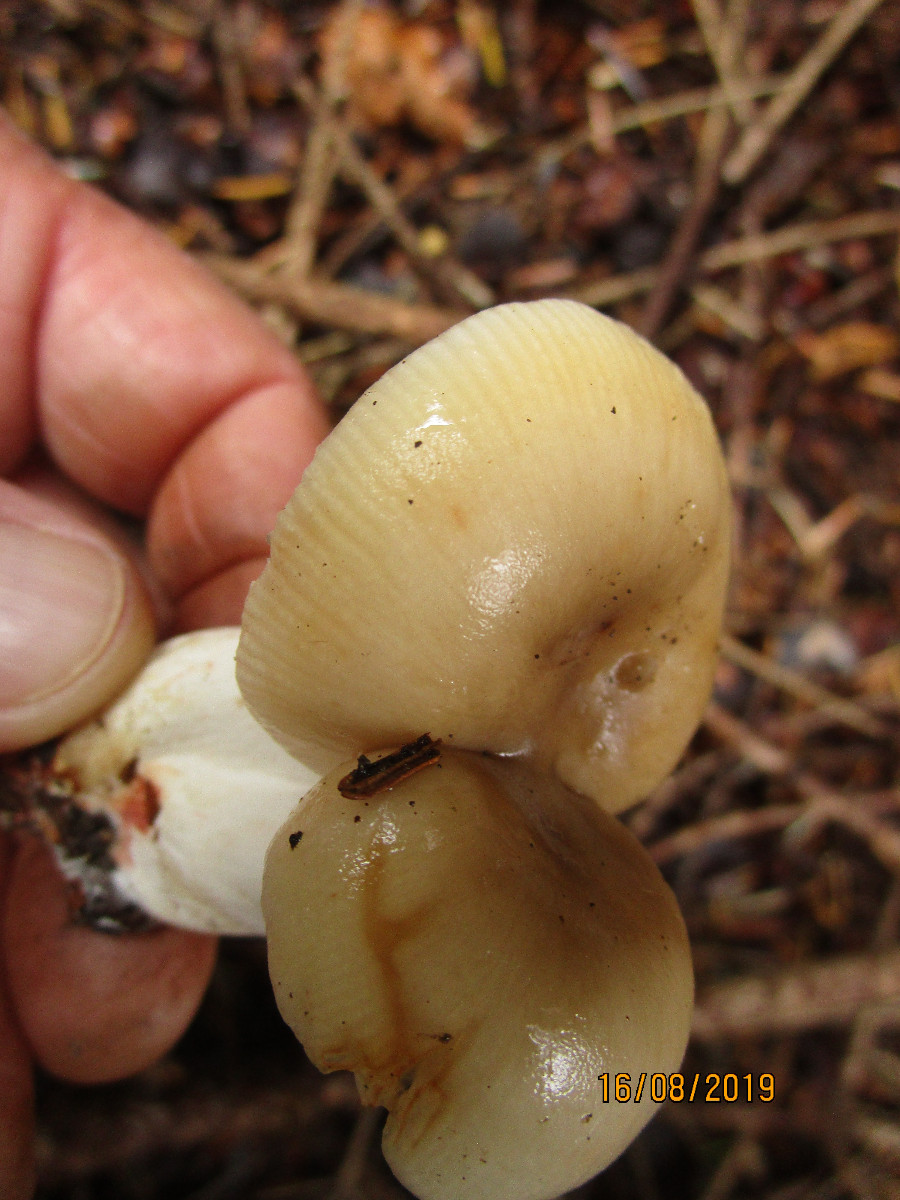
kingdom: Fungi
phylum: Basidiomycota
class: Agaricomycetes
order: Russulales
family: Russulaceae
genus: Russula
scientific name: Russula
